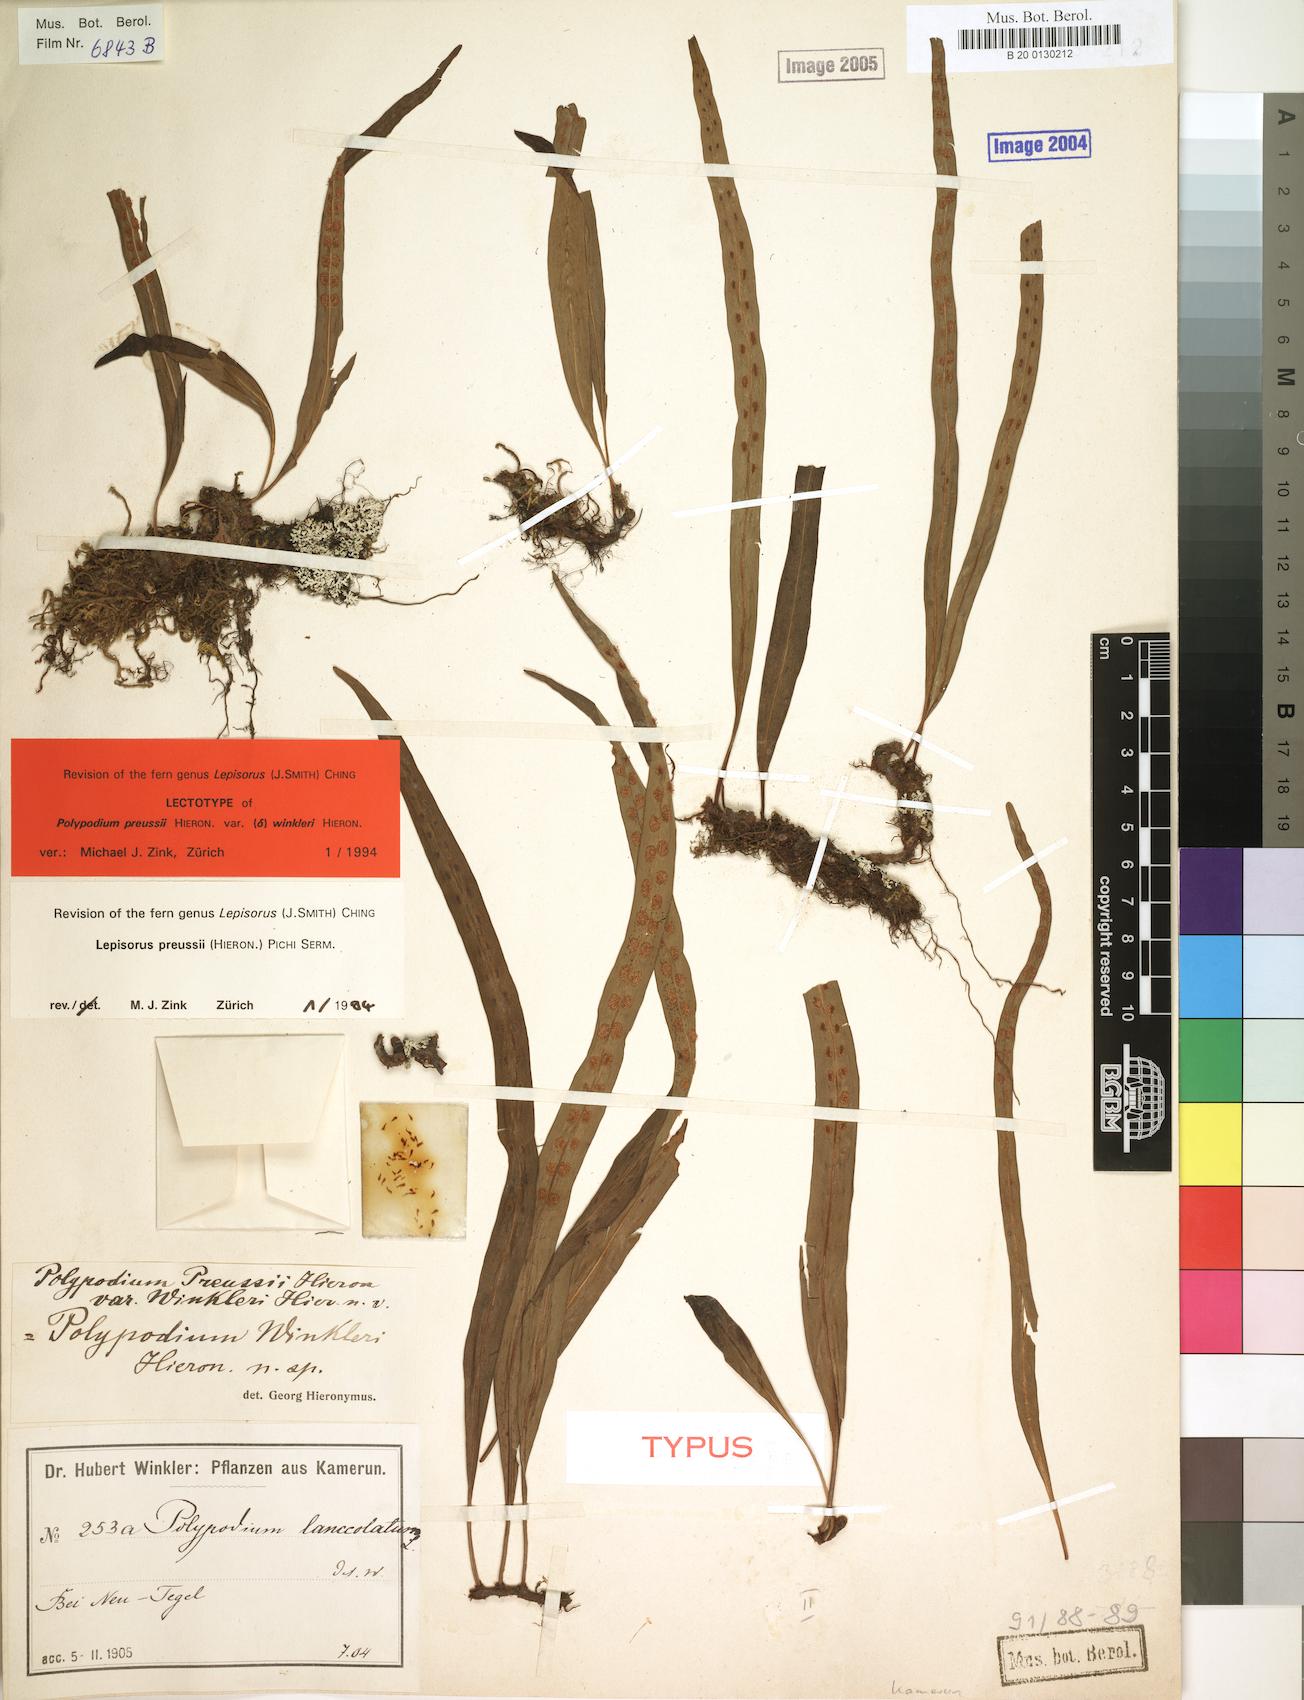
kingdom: Plantae
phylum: Tracheophyta
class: Polypodiopsida
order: Polypodiales
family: Polypodiaceae
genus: Lepisorus
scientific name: Lepisorus excavatus
